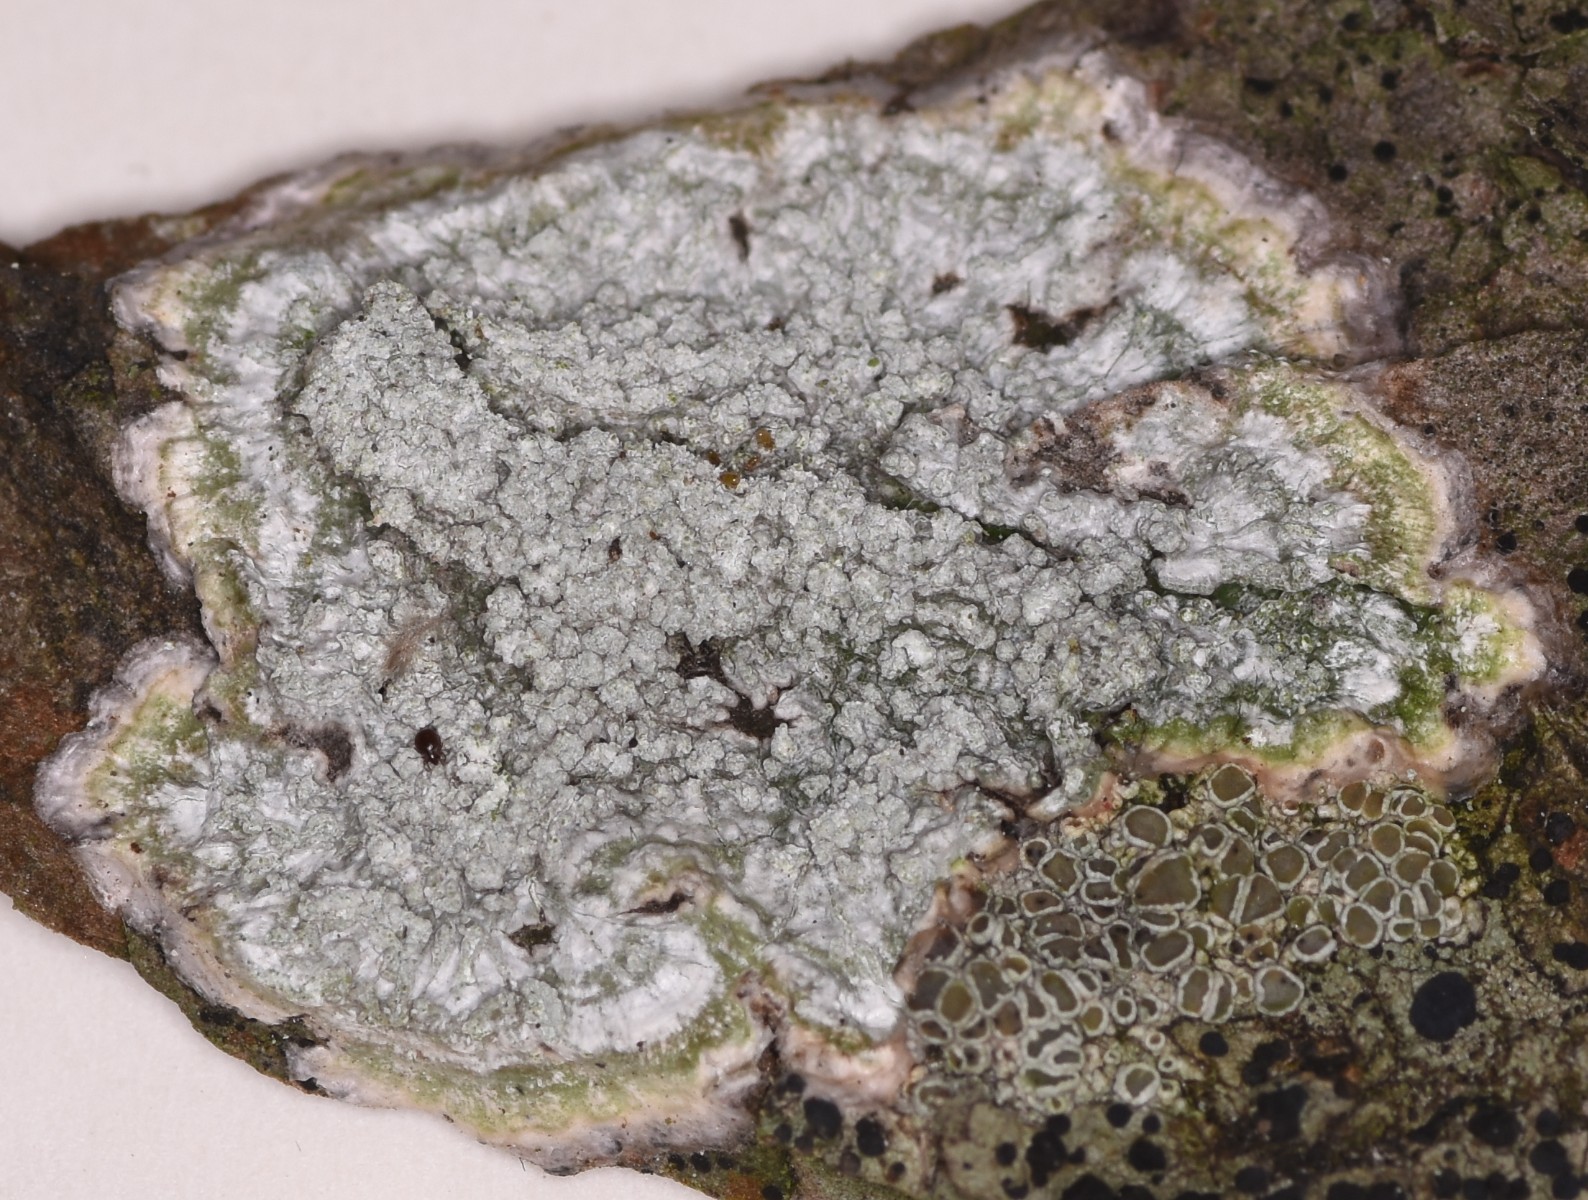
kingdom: Fungi
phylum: Ascomycota
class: Lecanoromycetes
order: Pertusariales
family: Pertusariaceae
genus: Lepra
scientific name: Lepra albescens
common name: hvidmelet prikvortelav
